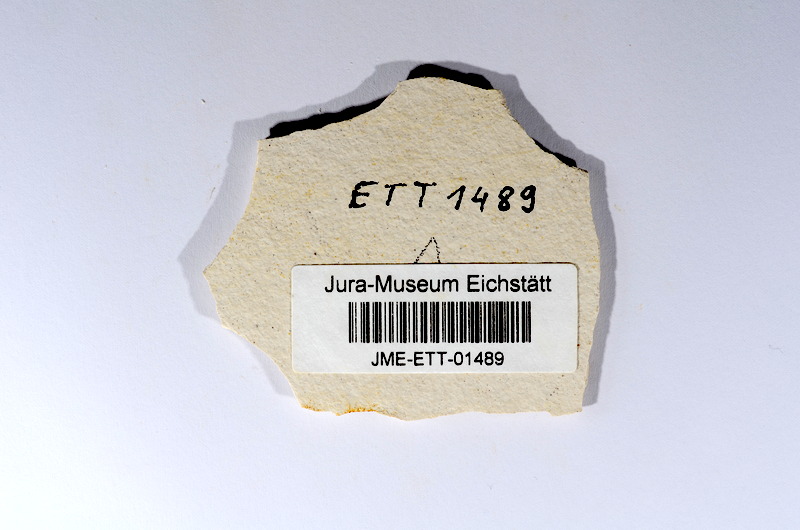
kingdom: Animalia
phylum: Chordata
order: Salmoniformes
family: Orthogonikleithridae
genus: Orthogonikleithrus
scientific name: Orthogonikleithrus hoelli
